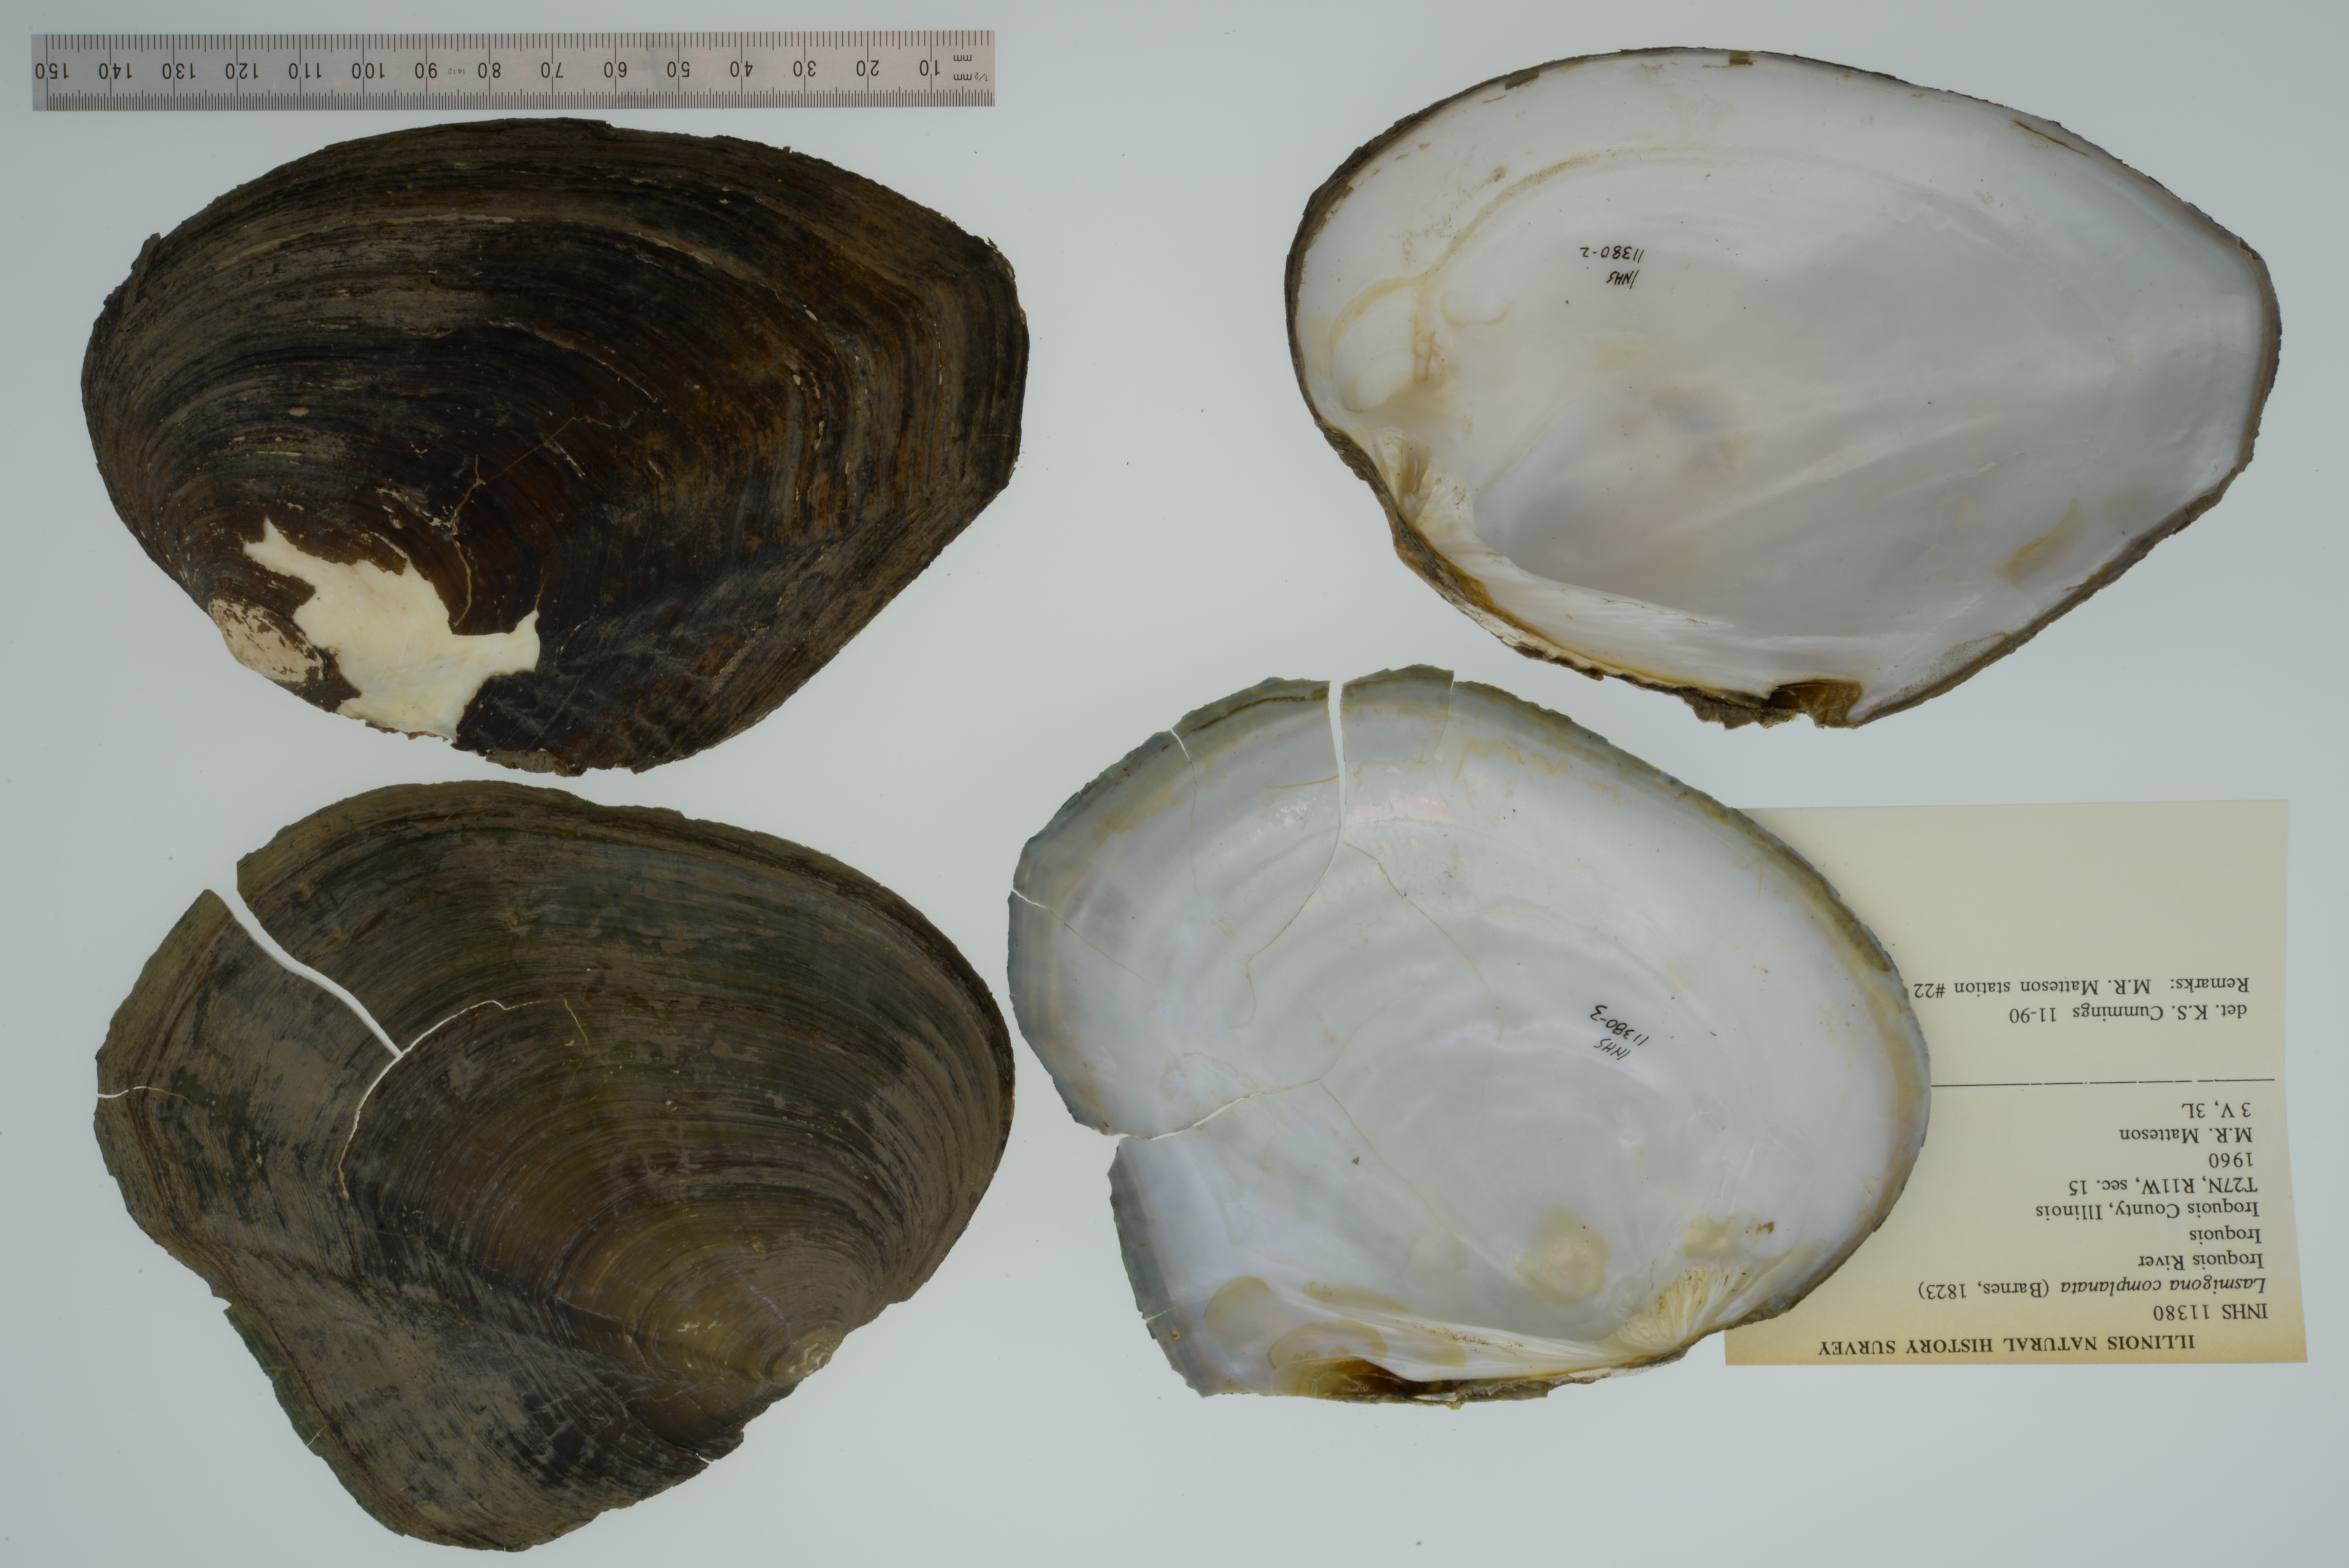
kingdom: Animalia
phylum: Mollusca
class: Bivalvia
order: Unionida
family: Unionidae
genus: Lasmigona
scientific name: Lasmigona complanata
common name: White heelsplitter
